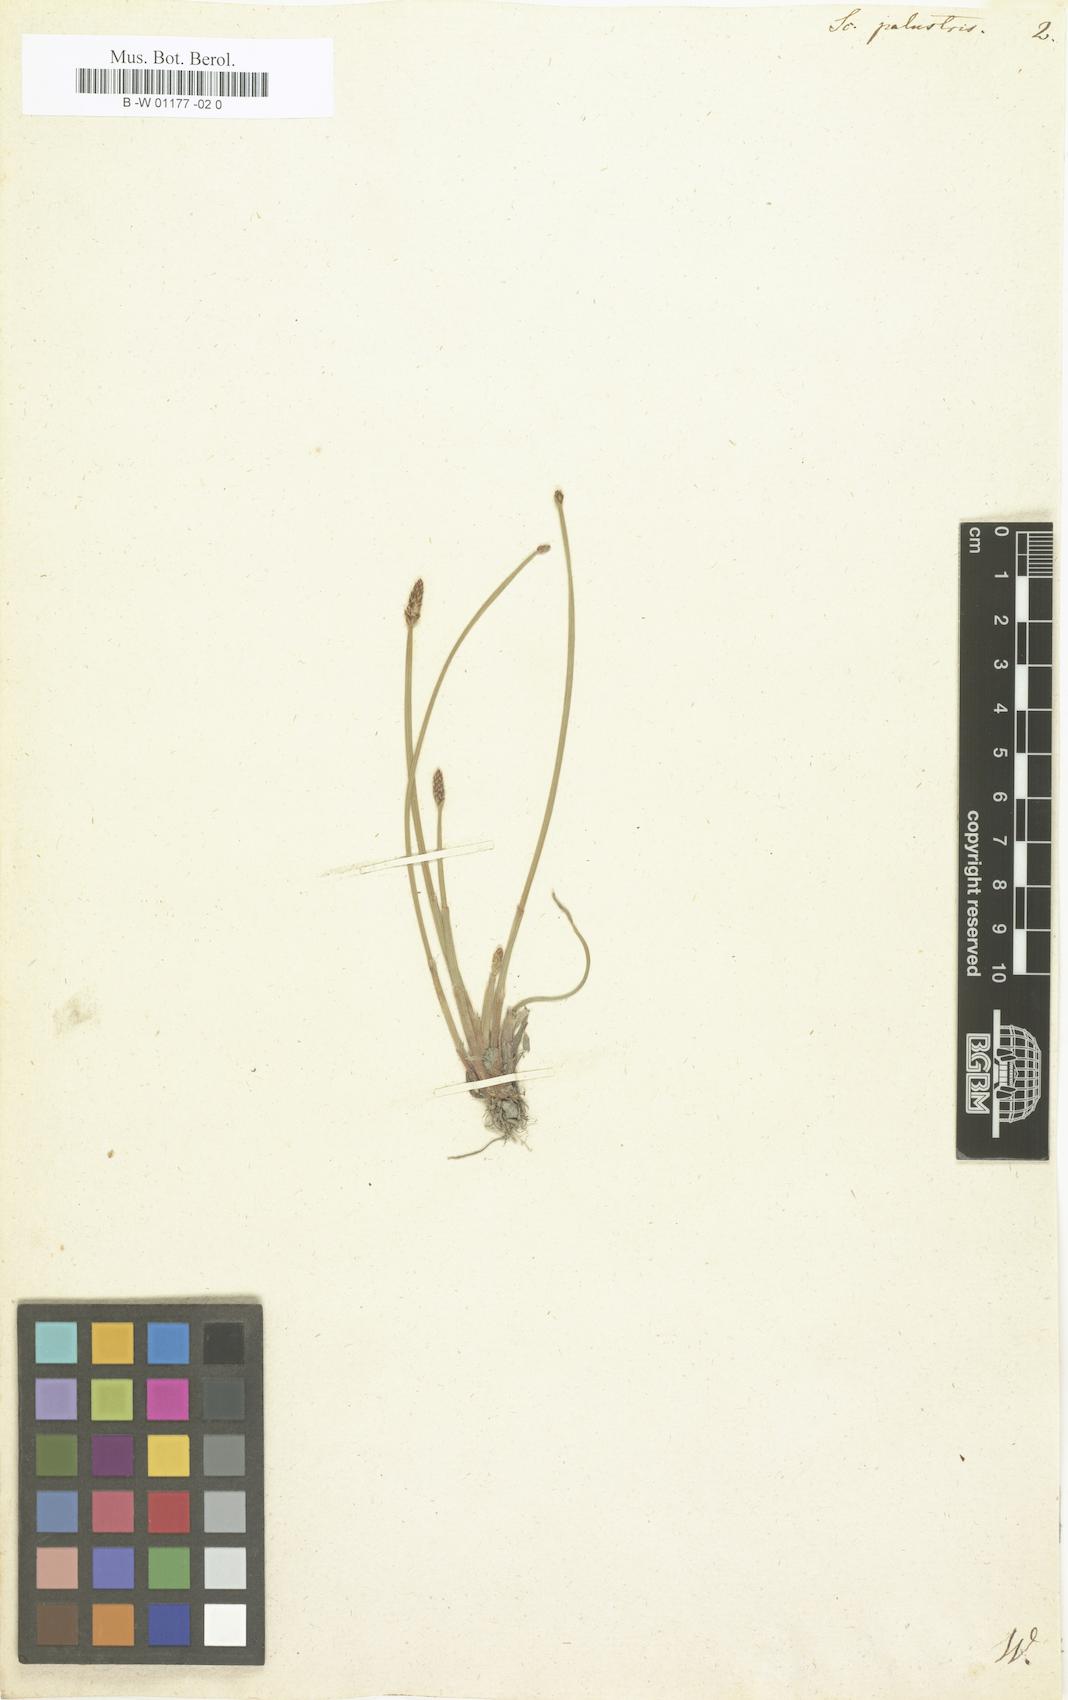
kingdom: Plantae
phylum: Tracheophyta
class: Liliopsida
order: Poales
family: Cyperaceae
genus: Eleocharis
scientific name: Eleocharis palustris
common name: Common spike-rush
